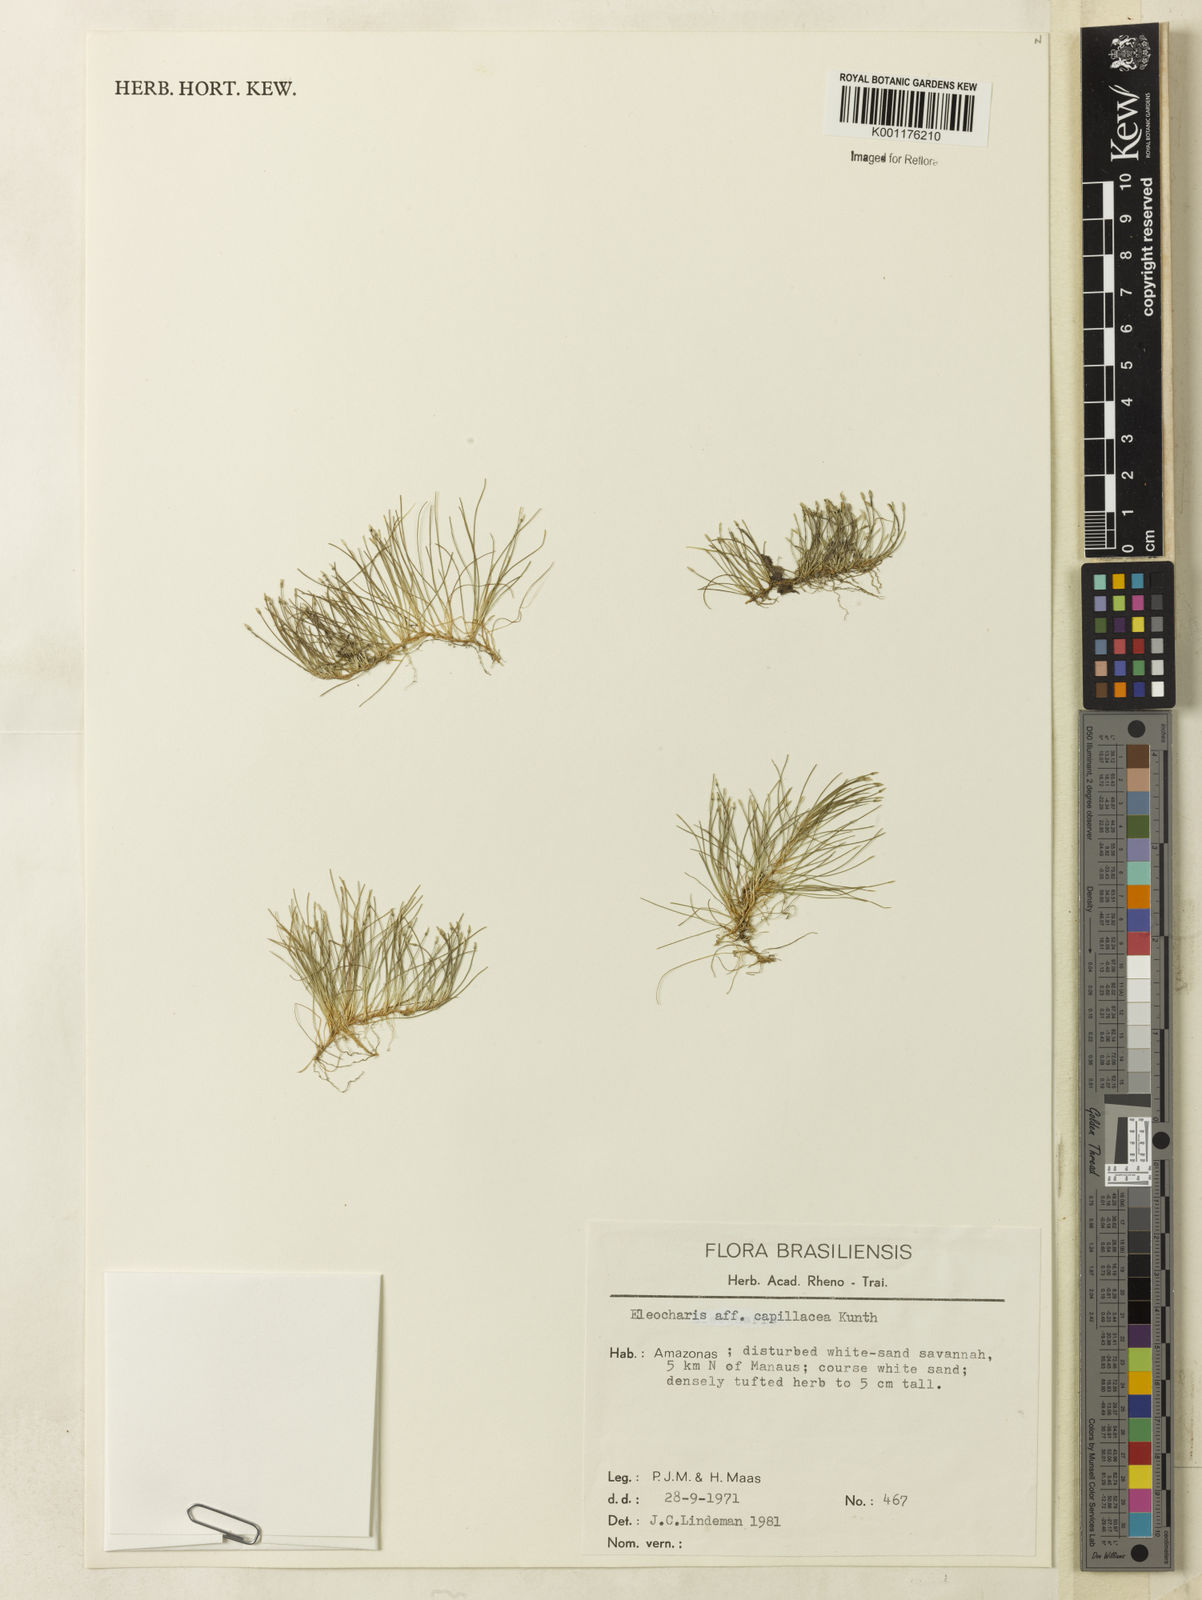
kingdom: Plantae
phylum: Tracheophyta
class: Liliopsida
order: Poales
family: Cyperaceae
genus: Eleocharis
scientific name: Eleocharis capillacea
